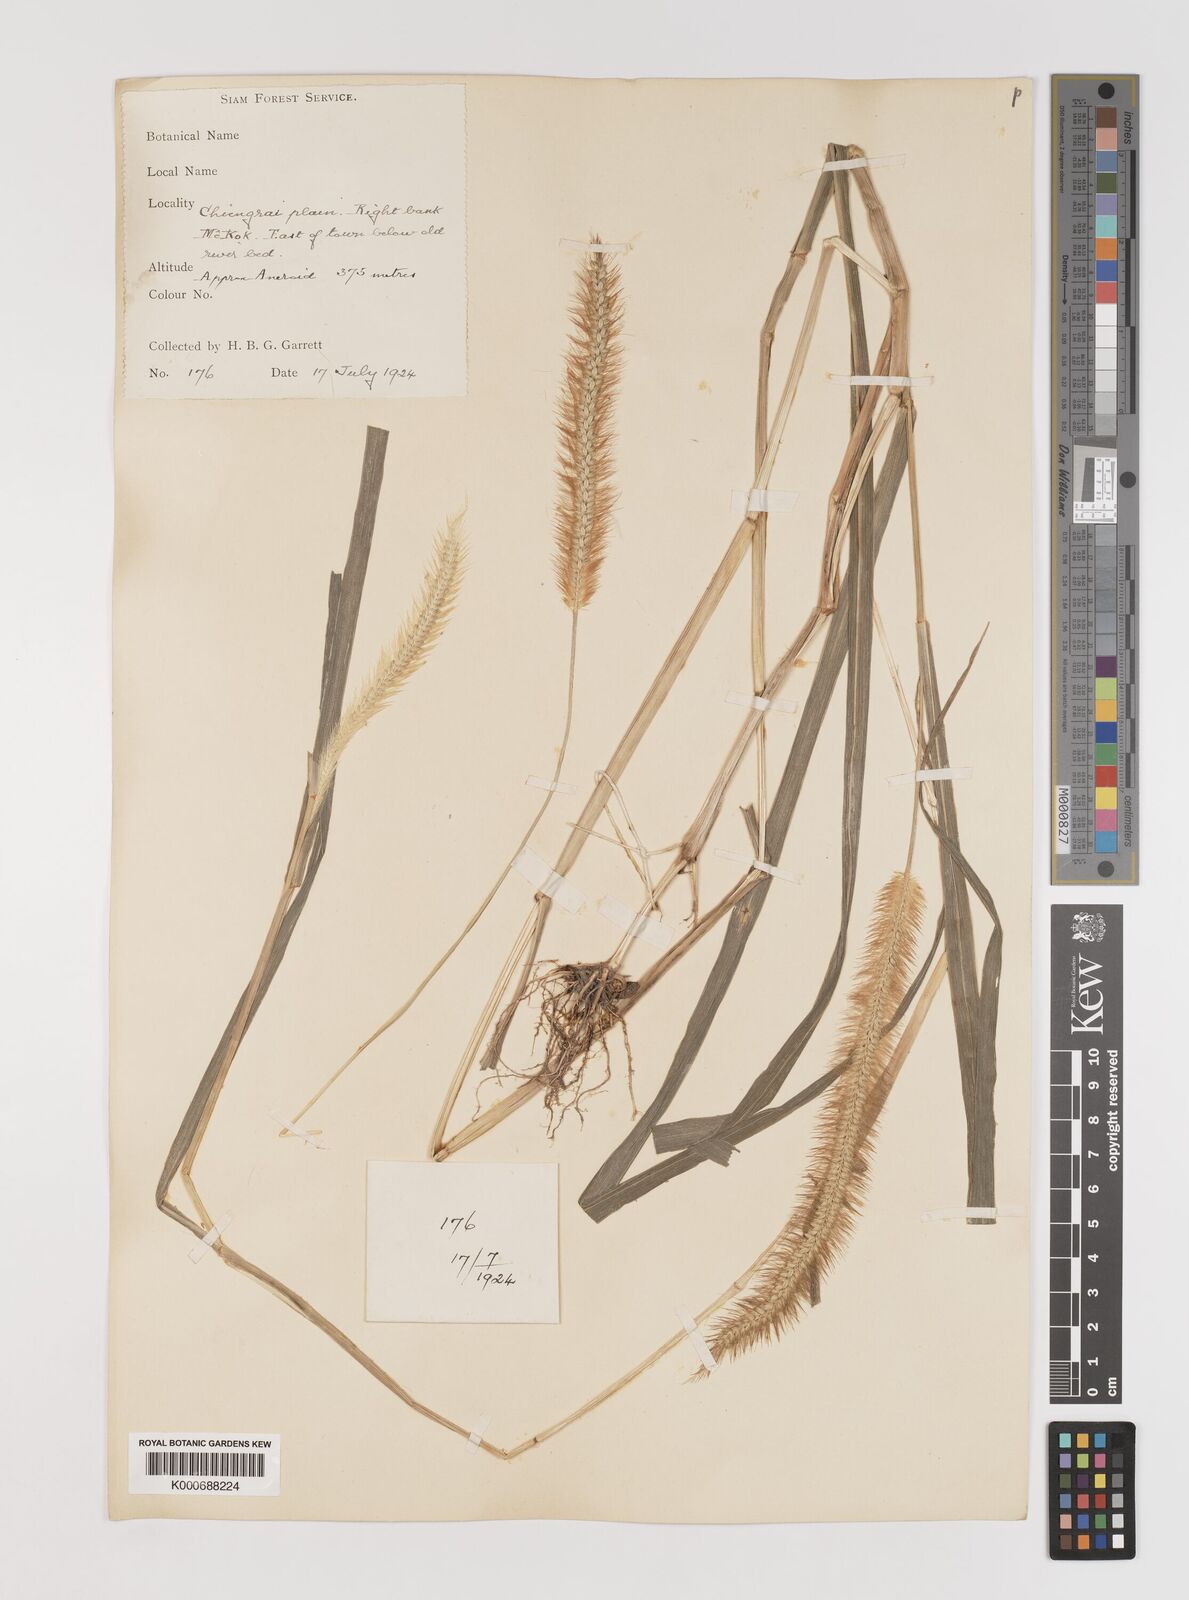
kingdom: Plantae
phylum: Tracheophyta
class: Liliopsida
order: Poales
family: Poaceae
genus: Setaria
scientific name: Setaria pumila
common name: Yellow bristle-grass
